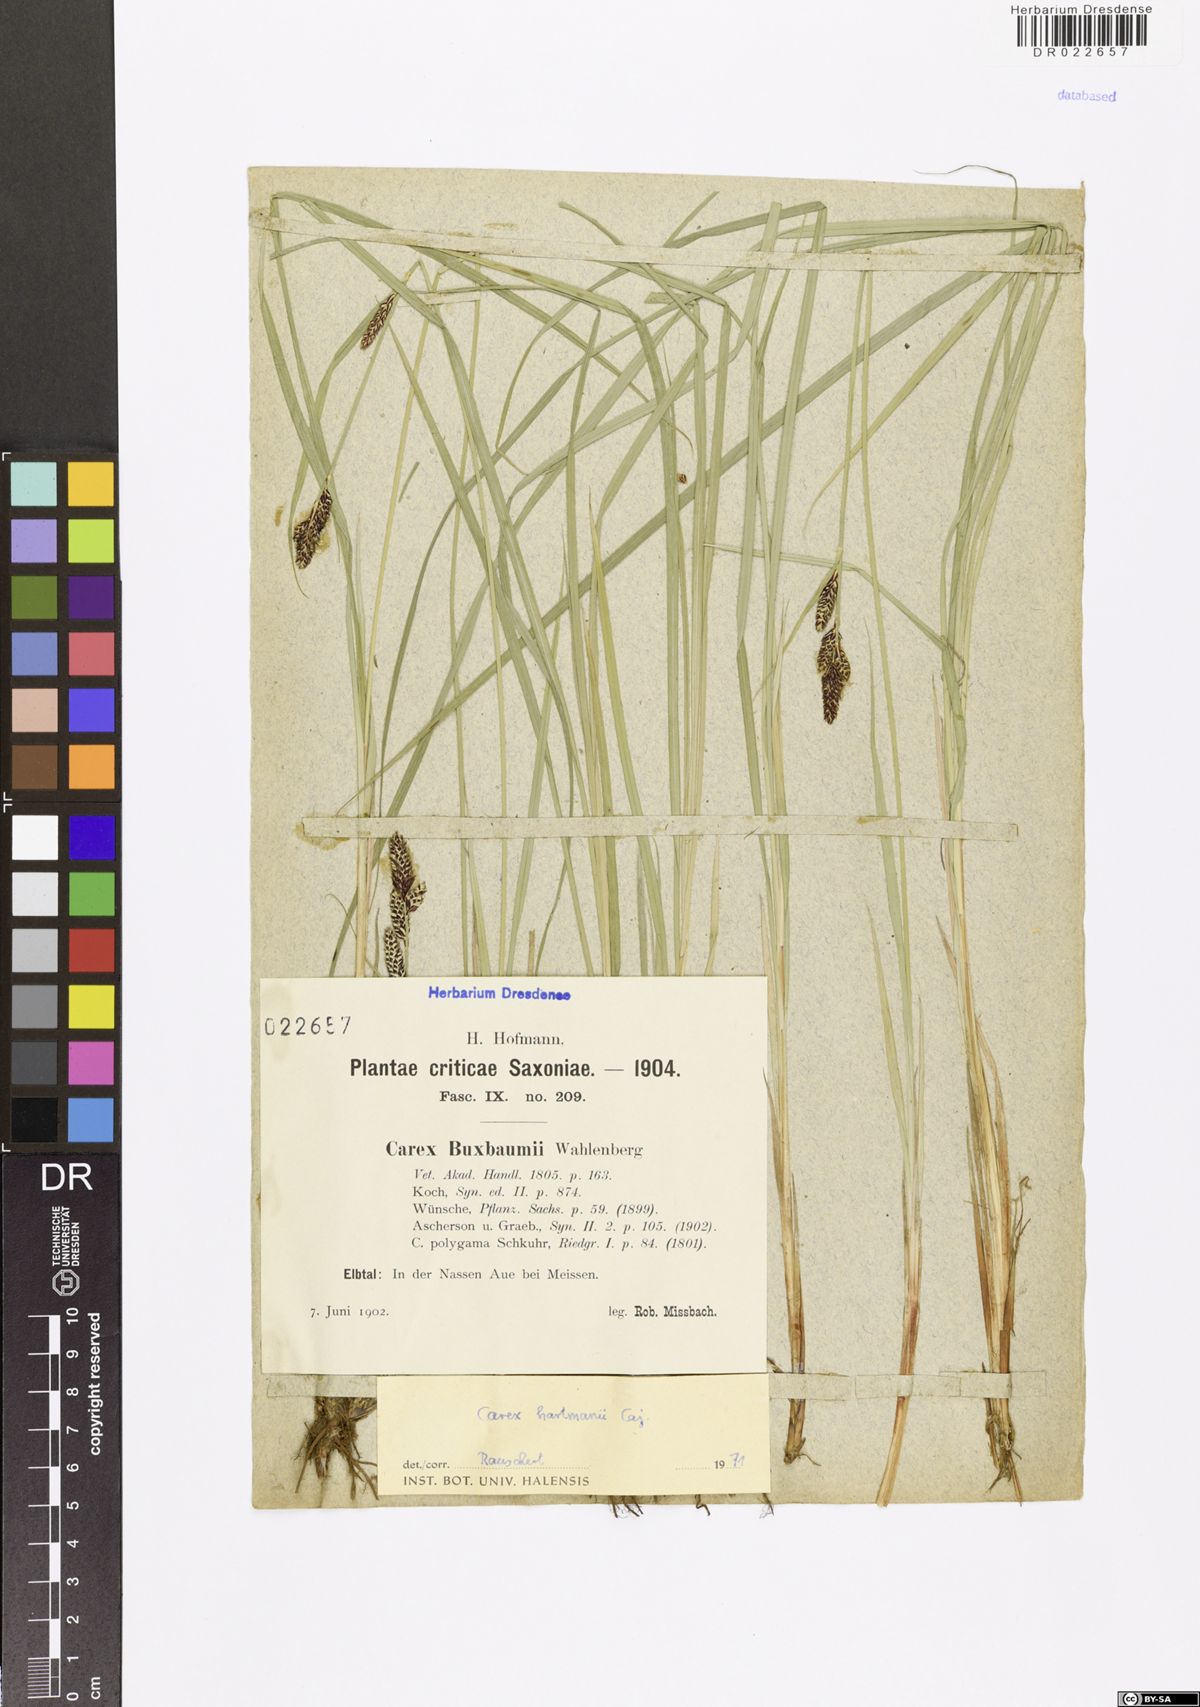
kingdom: Plantae
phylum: Tracheophyta
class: Liliopsida
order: Poales
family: Cyperaceae
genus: Carex
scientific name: Carex hartmaniorum
